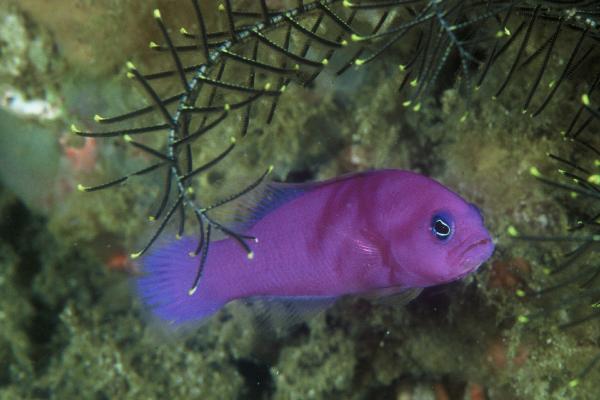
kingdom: Animalia
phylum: Chordata
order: Perciformes
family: Pseudochromidae
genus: Pictichromis
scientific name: Pictichromis porphyrea
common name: Magenta dottyback
